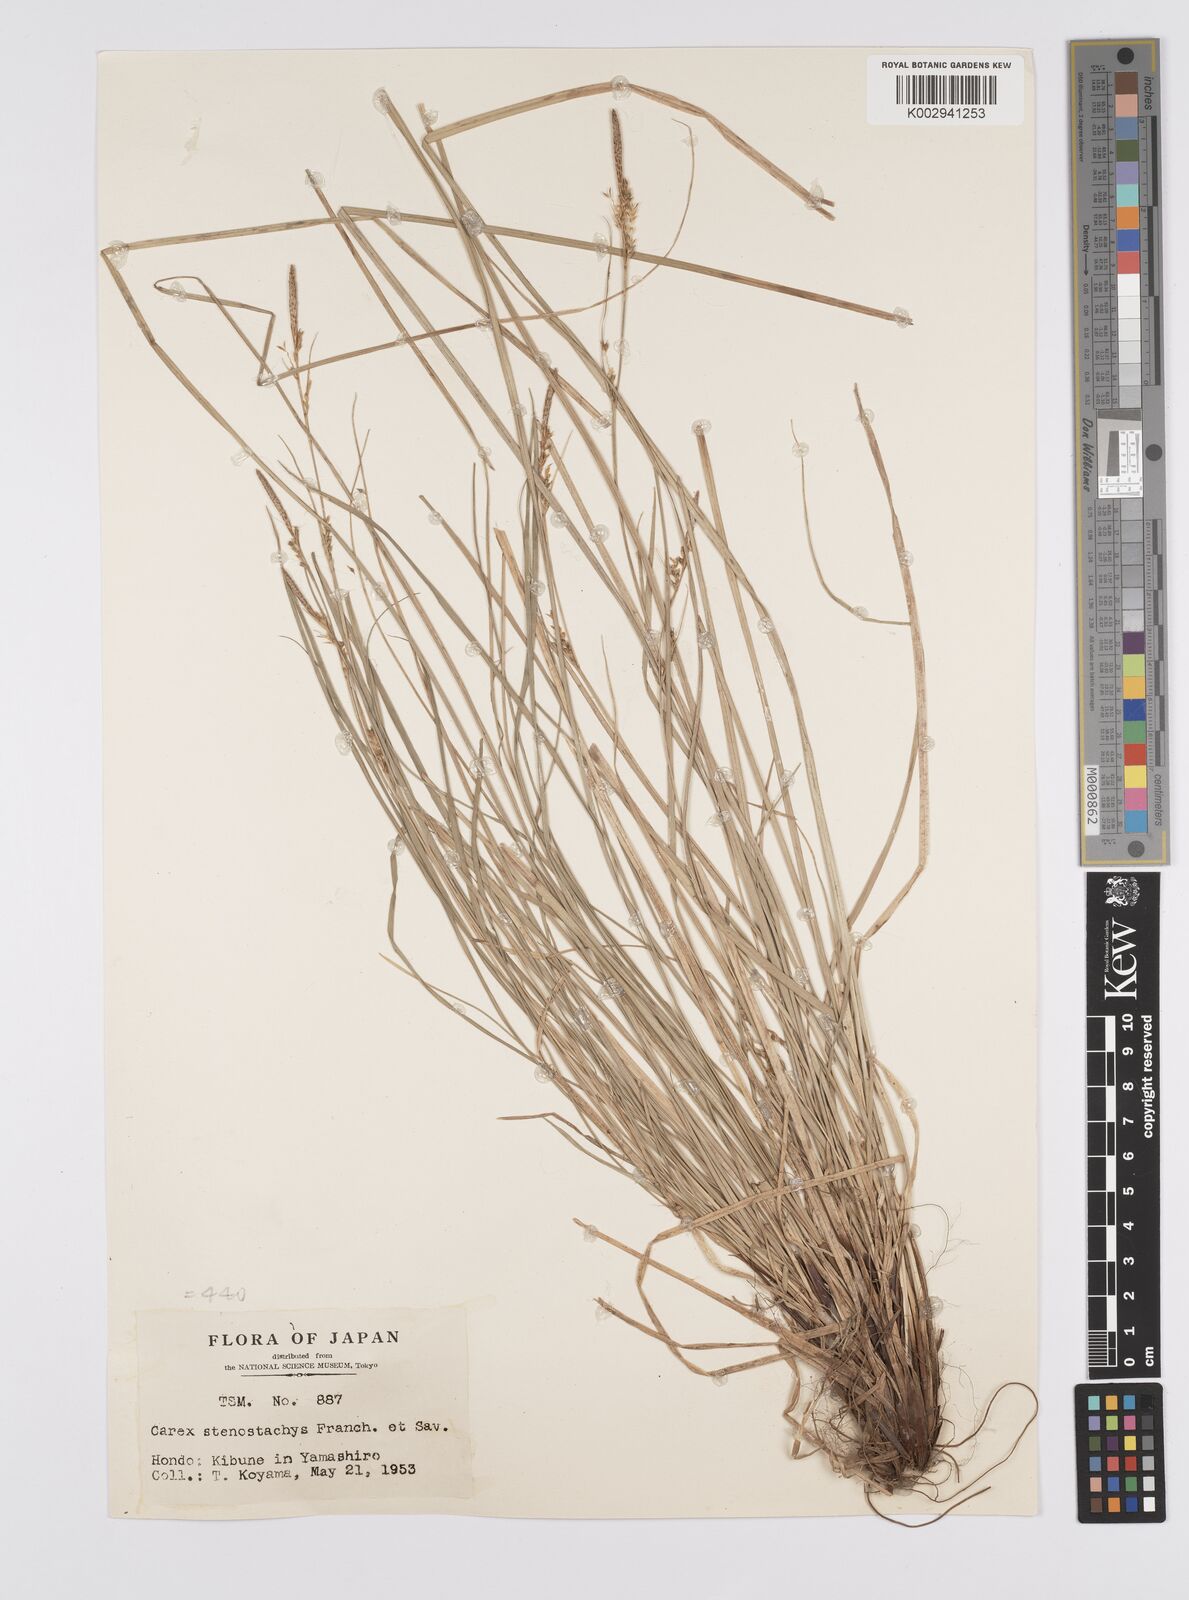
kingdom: Plantae
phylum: Tracheophyta
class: Liliopsida
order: Poales
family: Cyperaceae
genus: Carex
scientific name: Carex pisiformis
